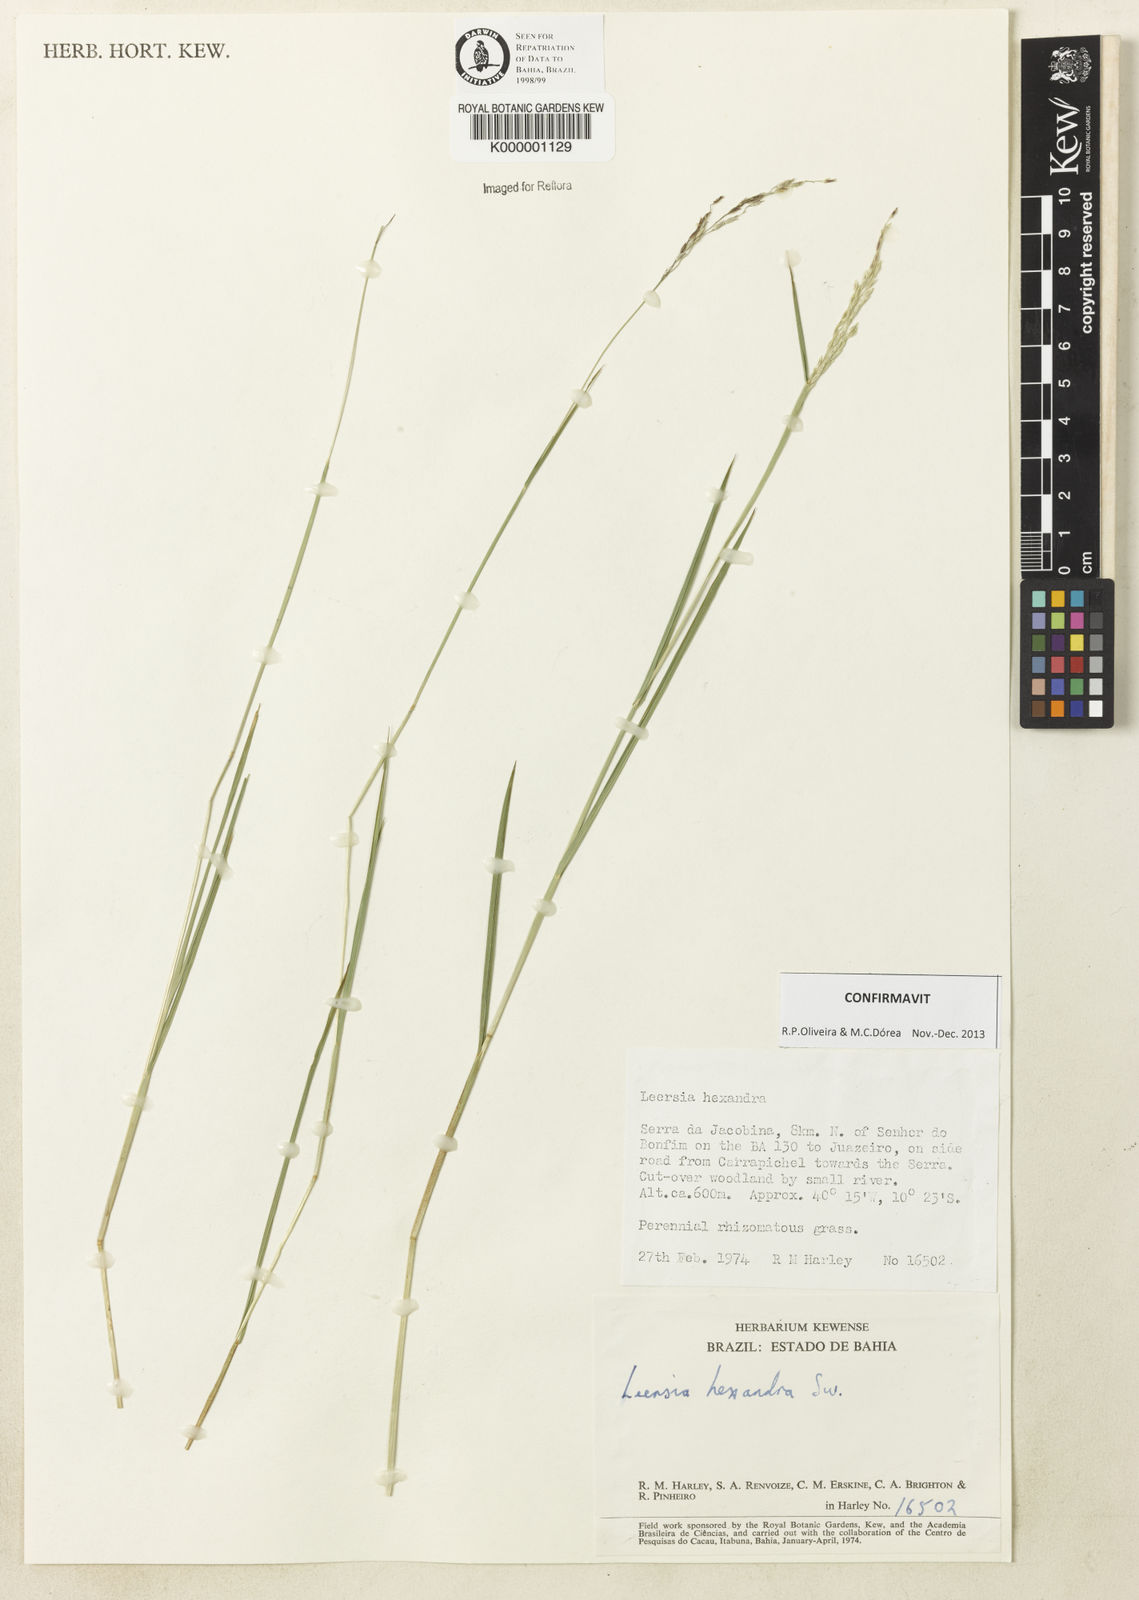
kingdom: Plantae
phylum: Tracheophyta
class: Liliopsida
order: Poales
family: Poaceae
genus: Leersia
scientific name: Leersia hexandra
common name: Southern cut grass
